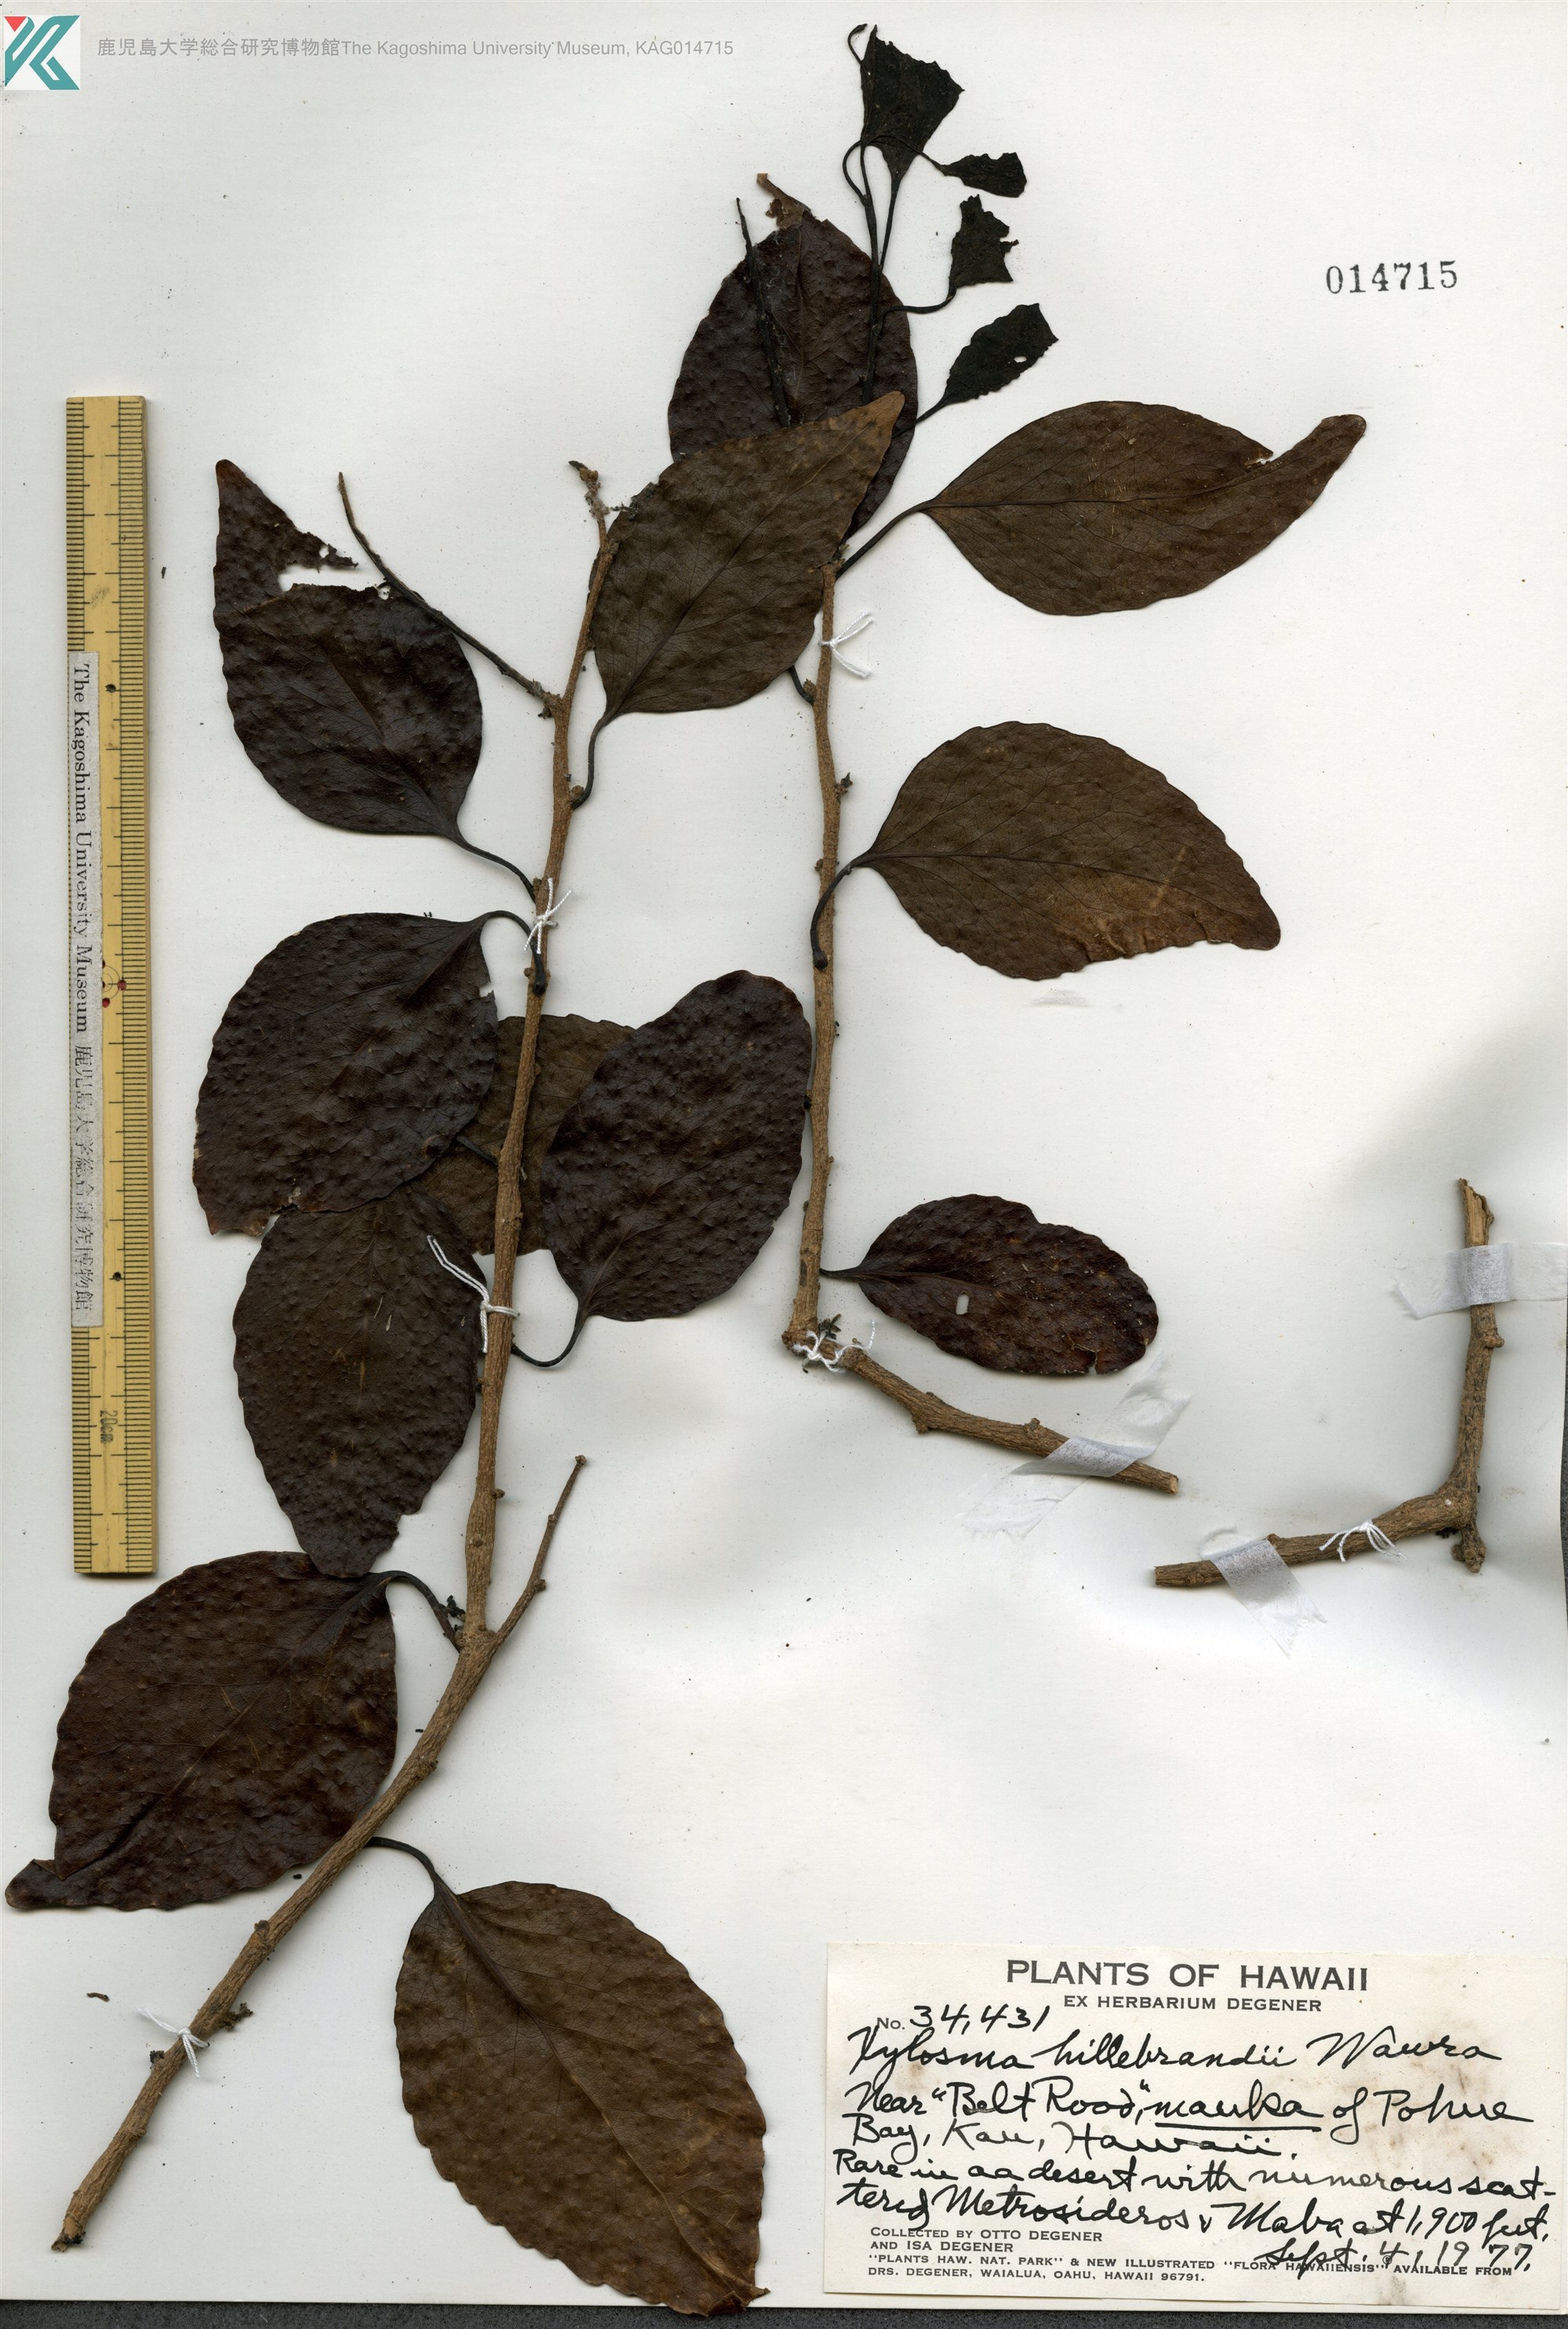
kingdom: Plantae
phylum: Tracheophyta
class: Magnoliopsida
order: Malpighiales
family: Salicaceae
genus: Xylosma
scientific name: Xylosma hawaiense
